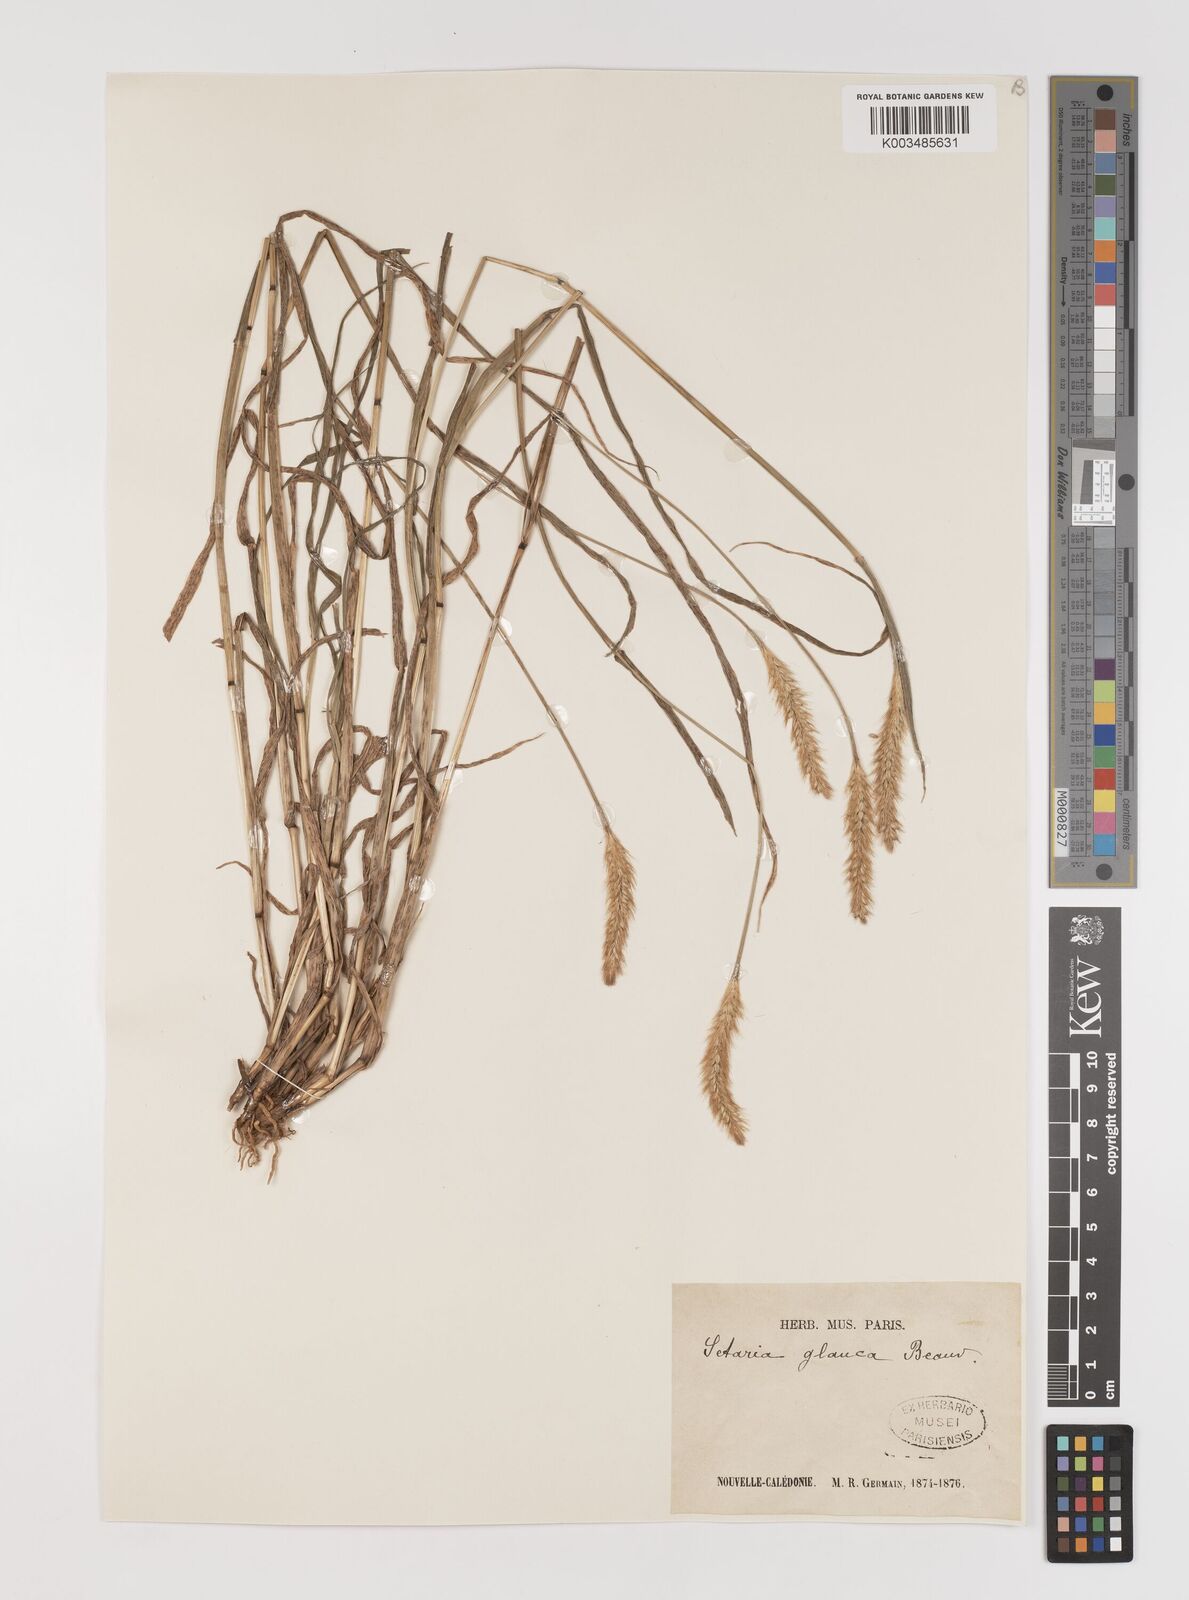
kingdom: Plantae
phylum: Tracheophyta
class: Liliopsida
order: Poales
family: Poaceae
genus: Setaria
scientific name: Setaria pumila
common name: Yellow bristle-grass
